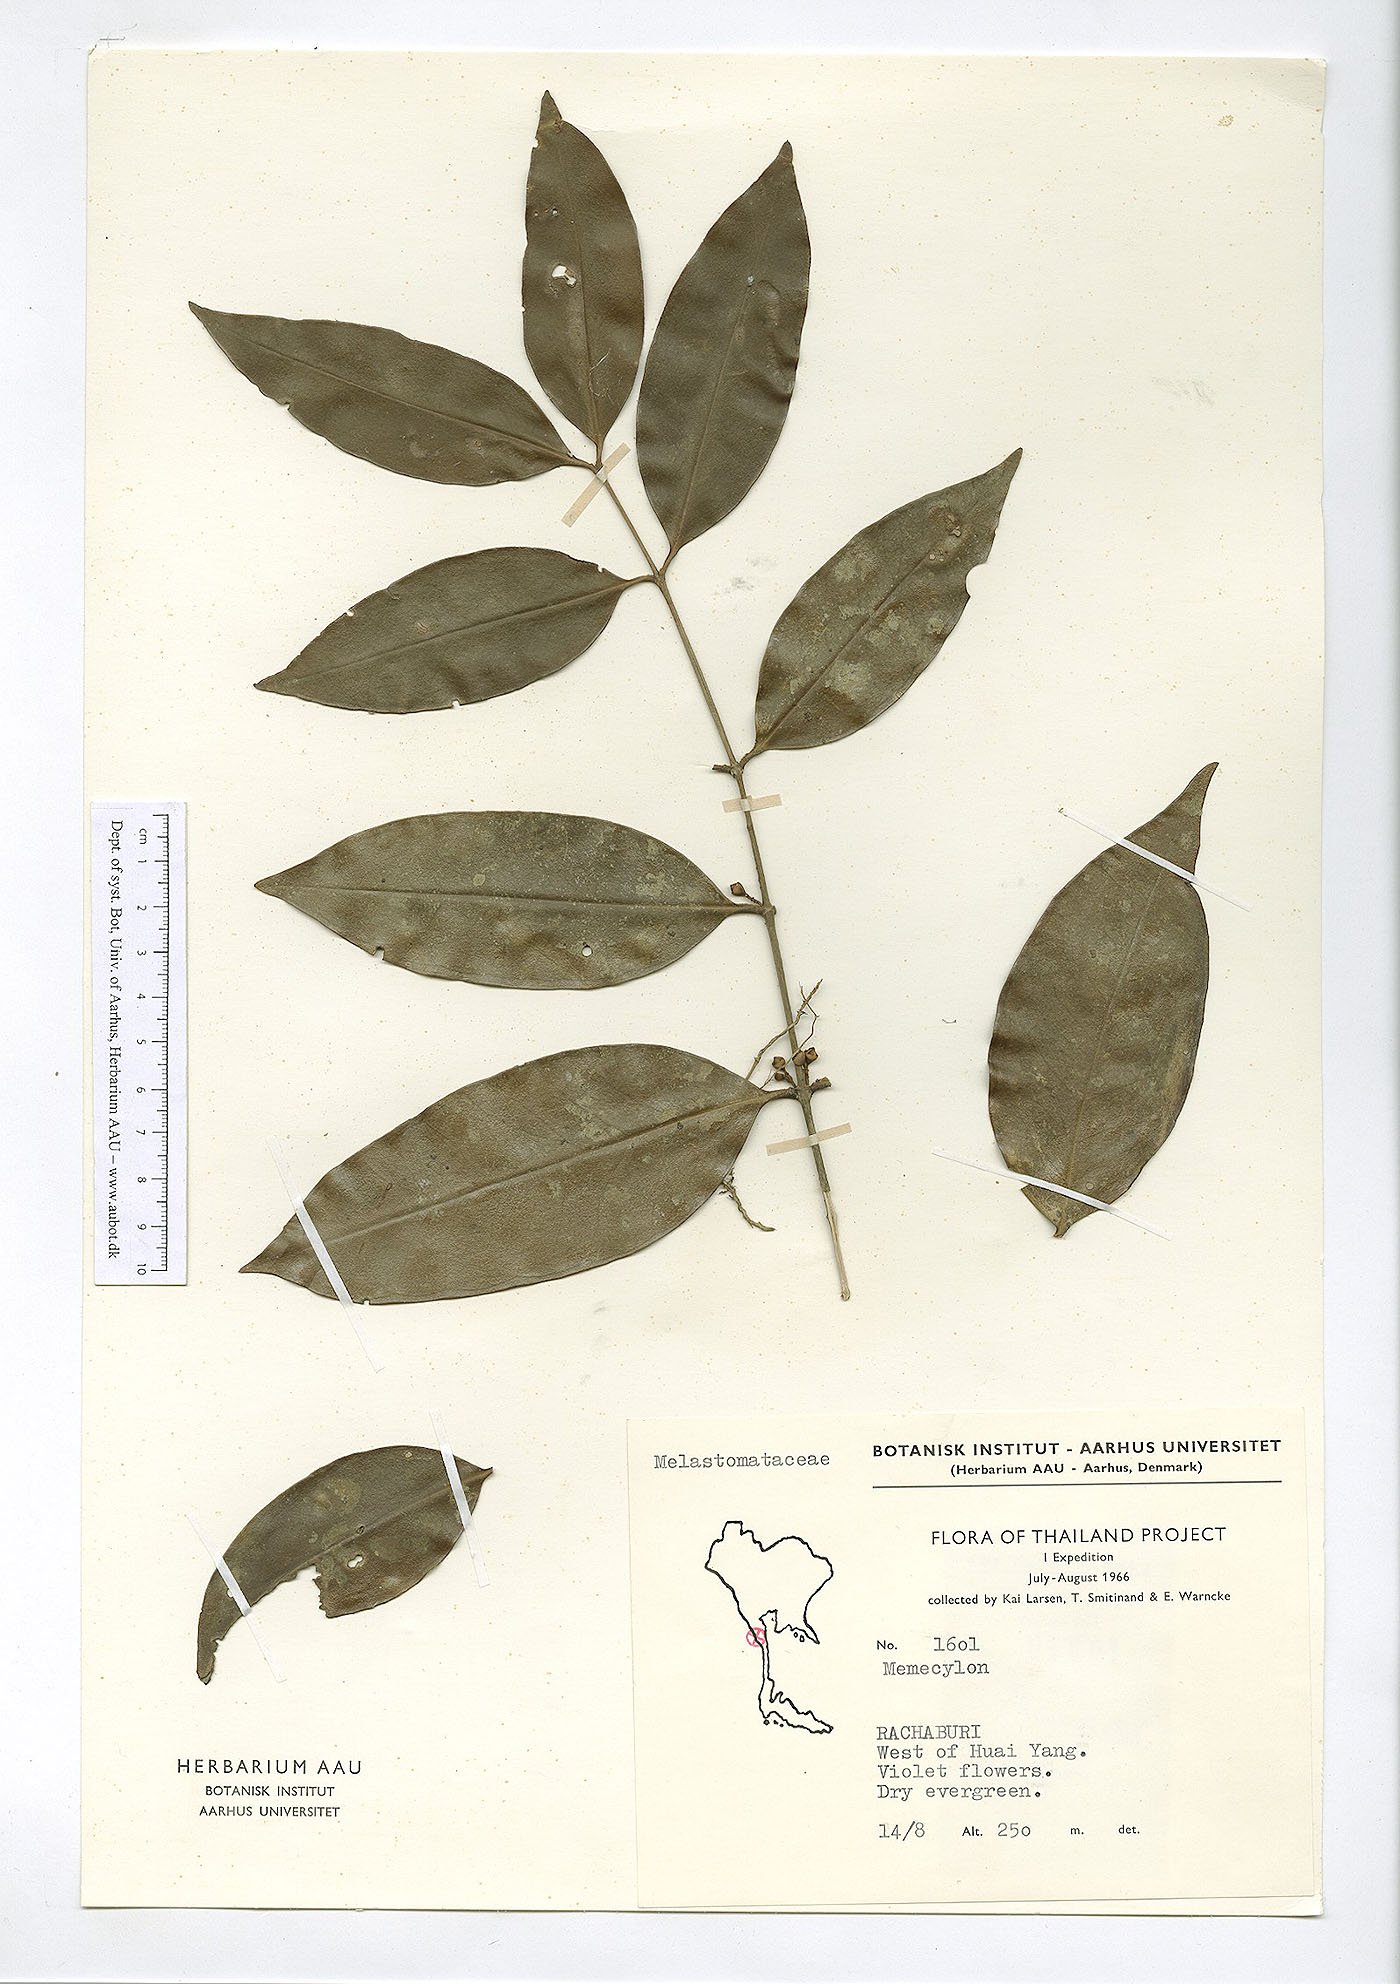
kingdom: Plantae
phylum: Tracheophyta
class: Magnoliopsida
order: Myrtales
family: Melastomataceae
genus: Memecylon
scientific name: Memecylon caeruleum
